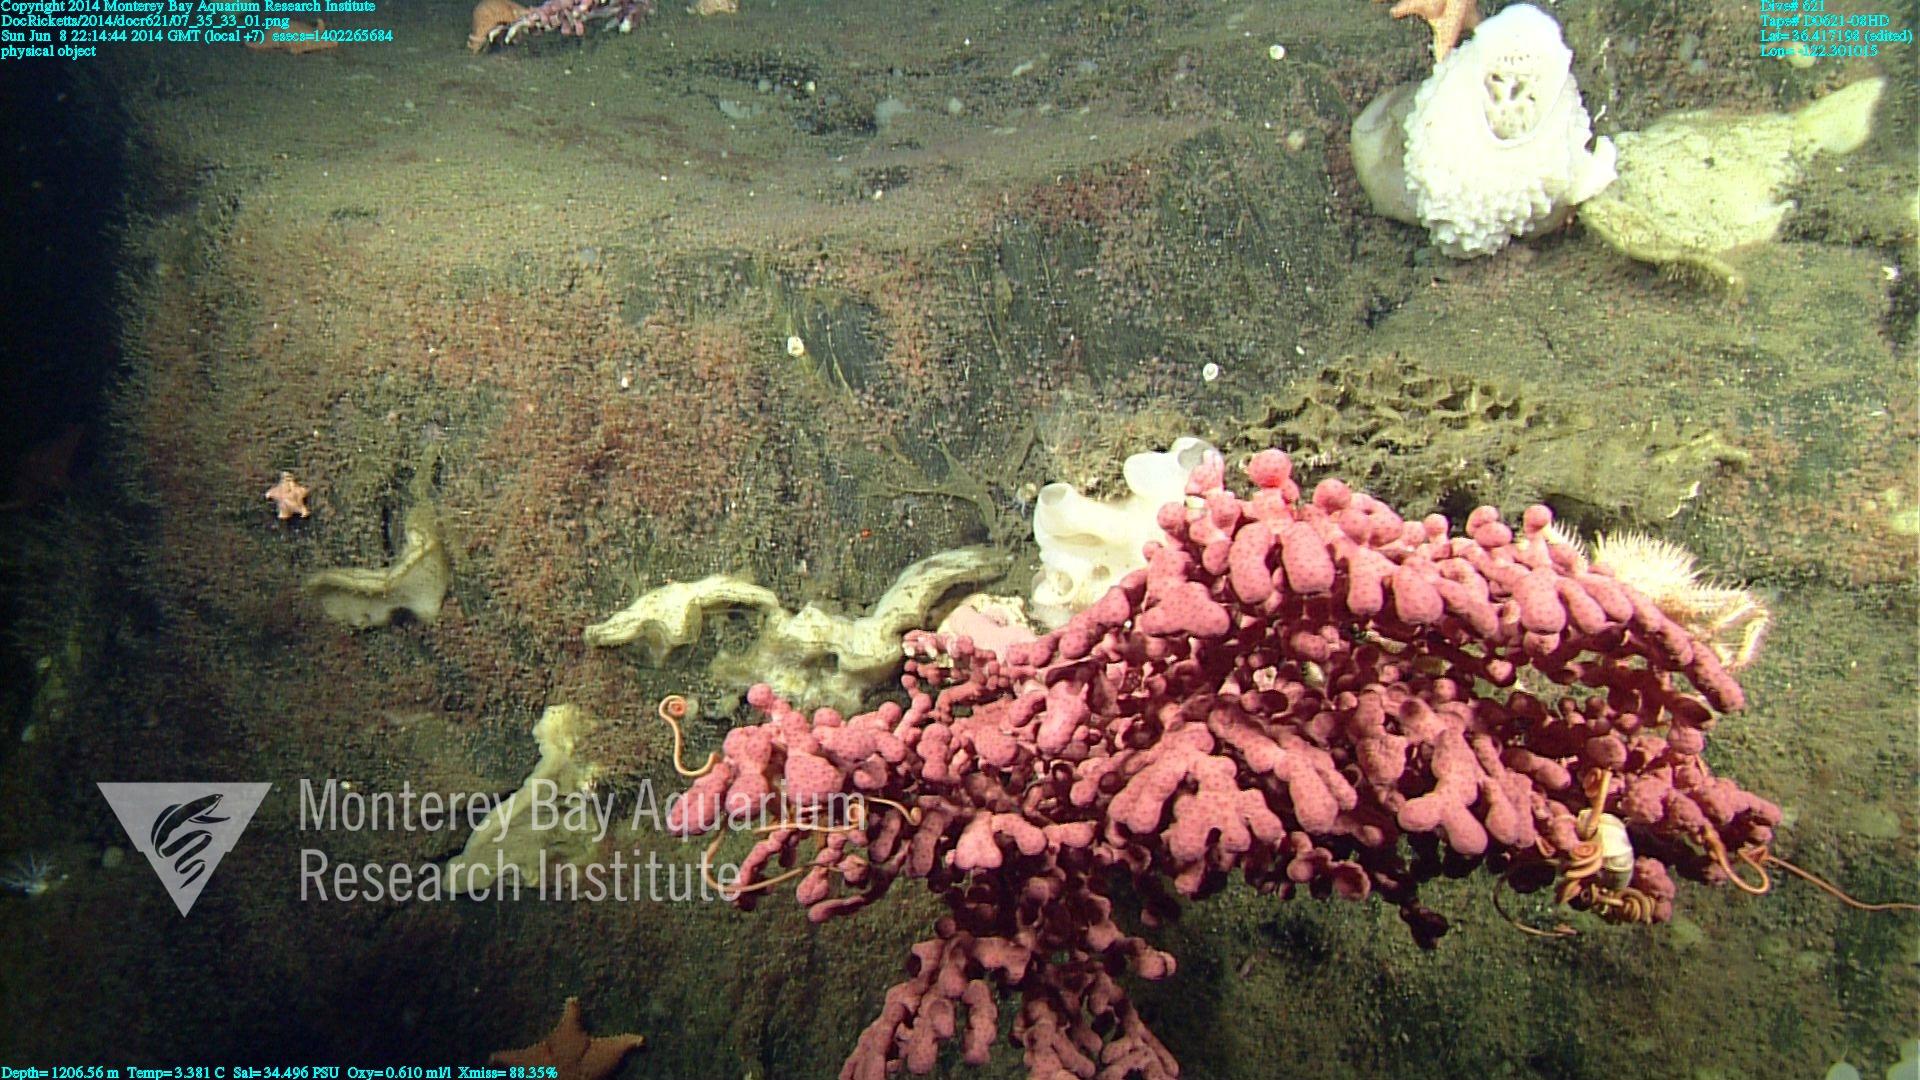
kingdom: Animalia
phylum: Cnidaria
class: Anthozoa
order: Scleralcyonacea
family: Coralliidae
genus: Paragorgia
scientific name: Paragorgia arborea
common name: Bubble gum coral
